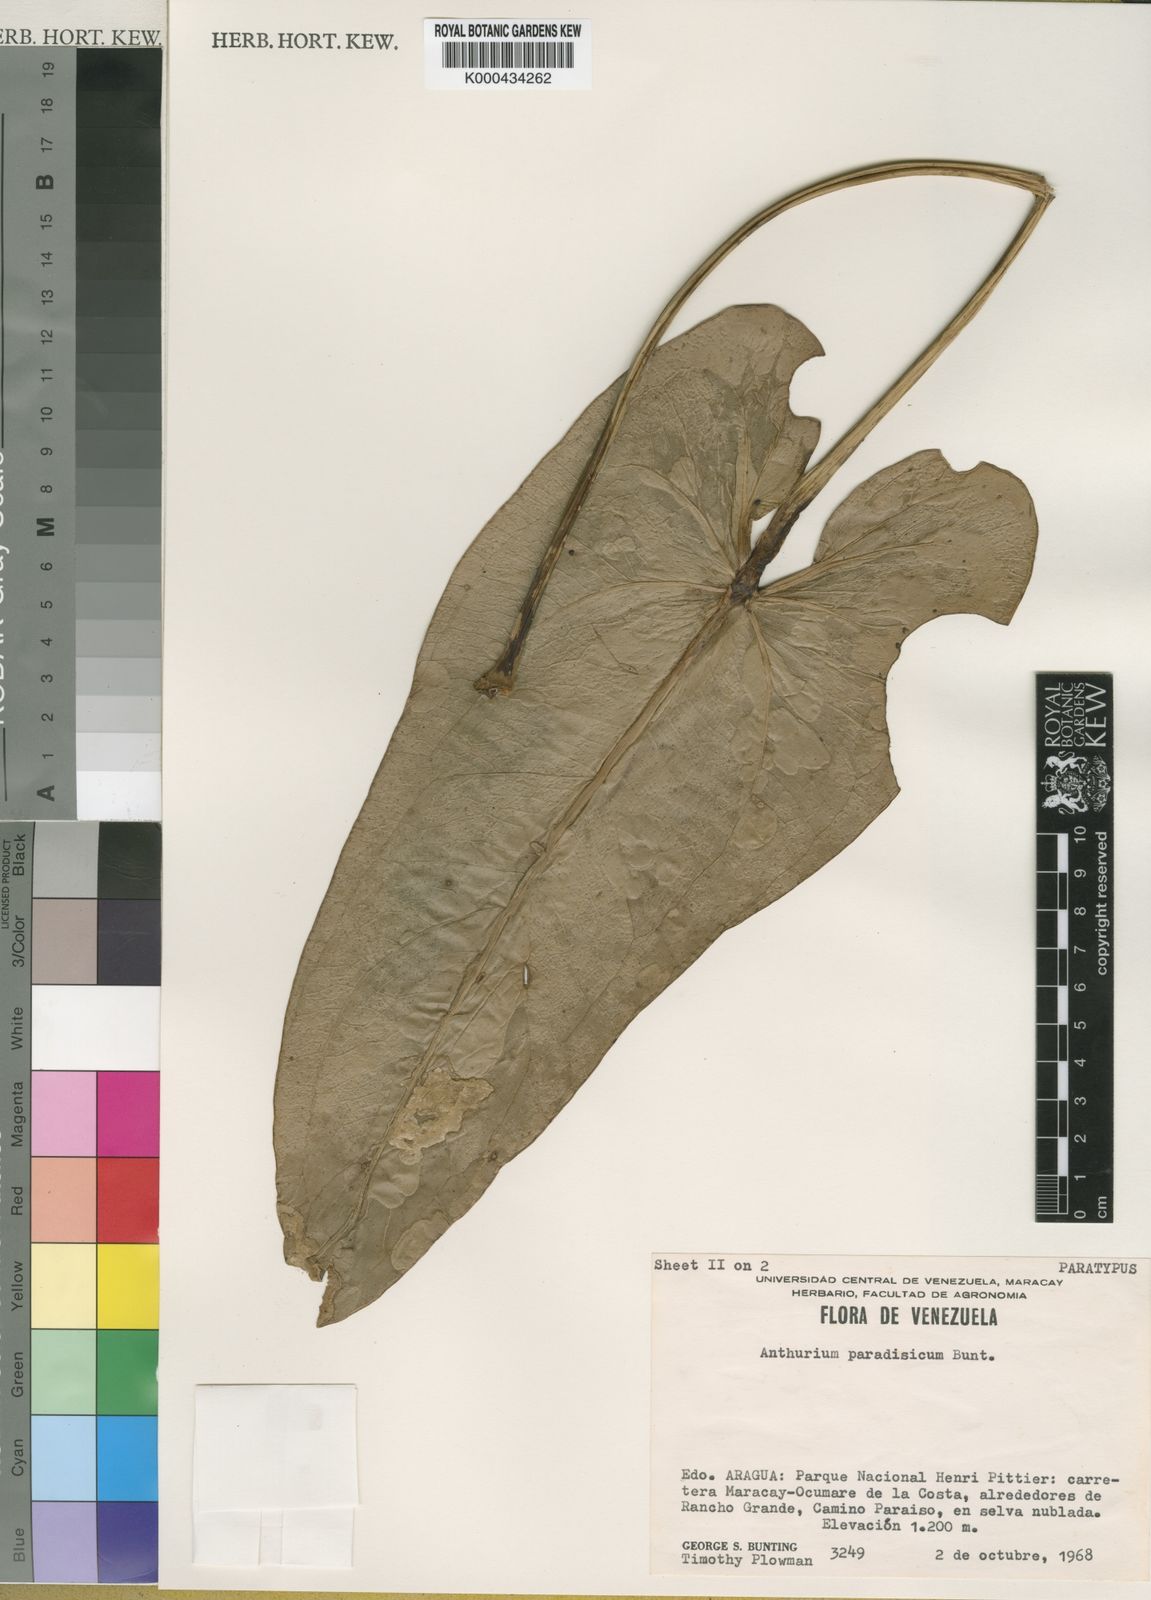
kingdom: Plantae
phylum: Tracheophyta
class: Liliopsida
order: Alismatales
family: Araceae
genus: Anthurium
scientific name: Anthurium paradisicum
